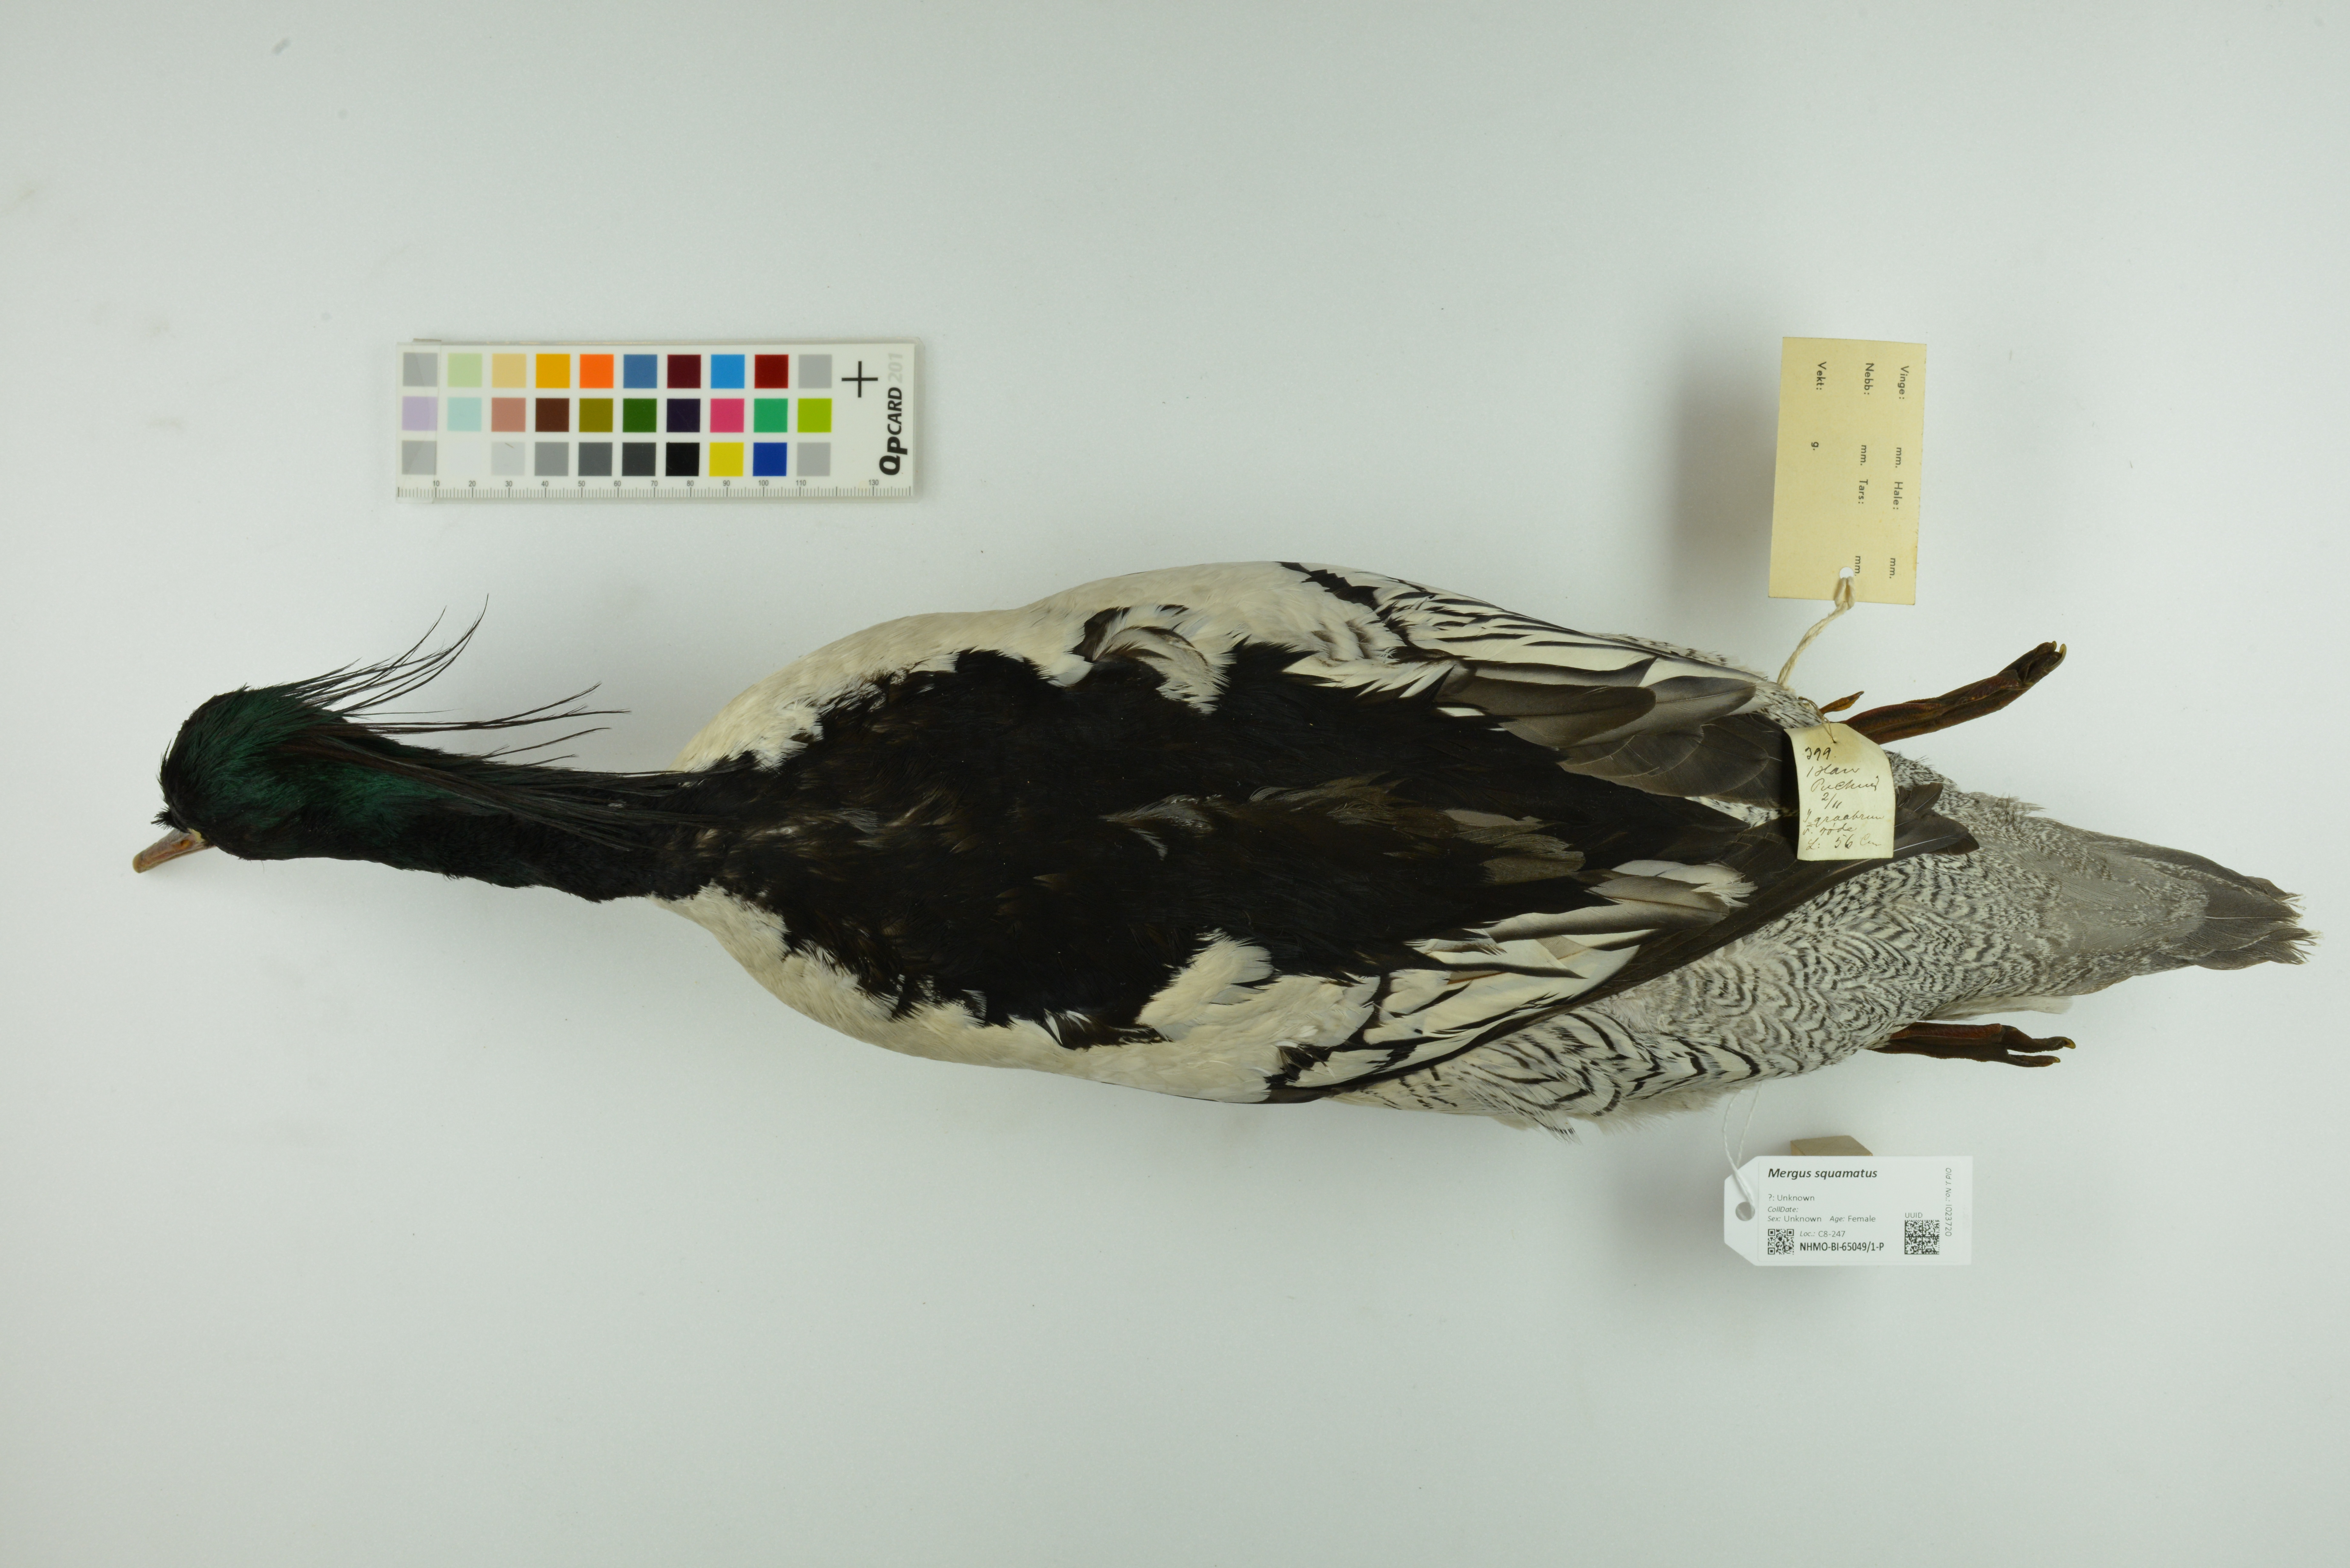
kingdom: Animalia
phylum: Chordata
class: Aves
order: Anseriformes
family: Anatidae
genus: Mergus
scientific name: Mergus squamatus
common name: Scaly-sided merganser
